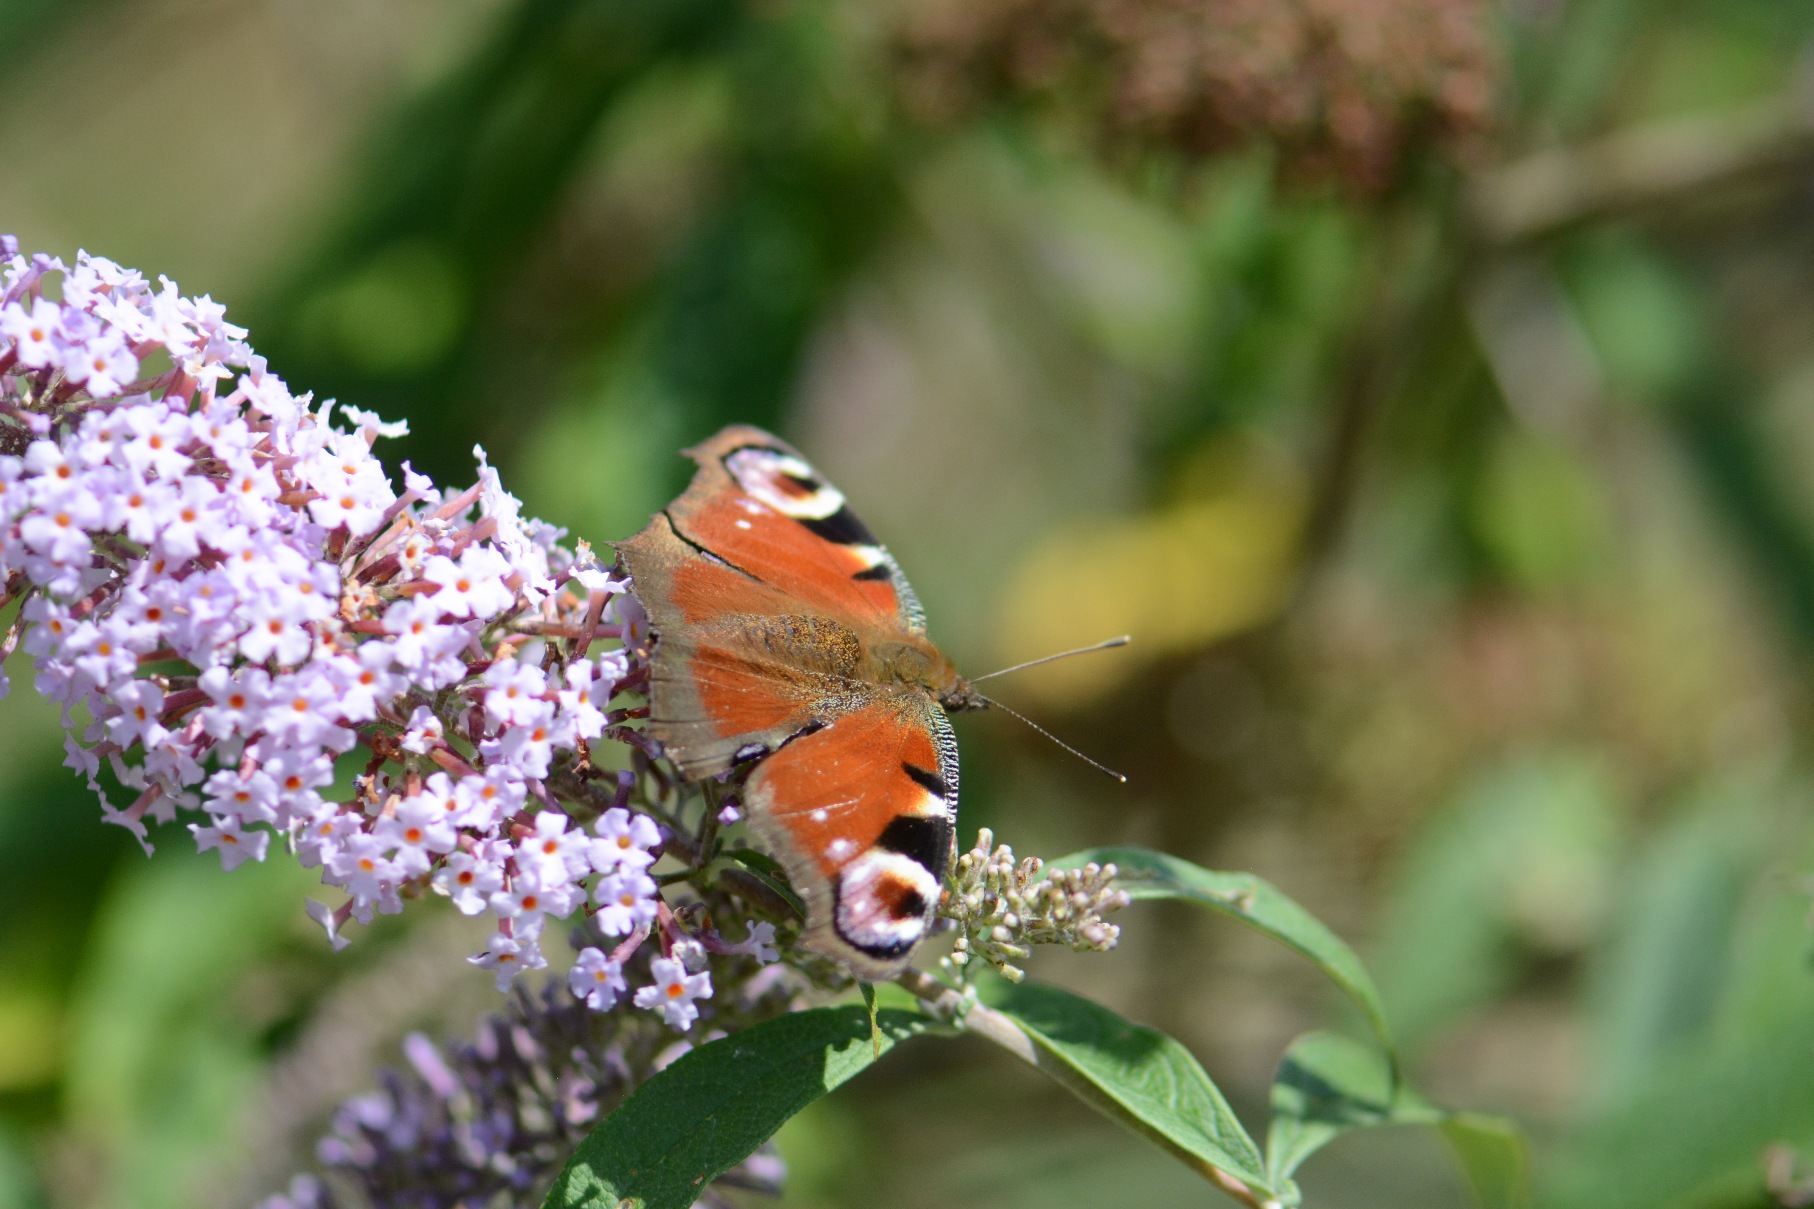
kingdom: Animalia
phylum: Arthropoda
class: Insecta
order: Lepidoptera
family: Nymphalidae
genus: Aglais
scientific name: Aglais io
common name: Dagpåfugleøje
